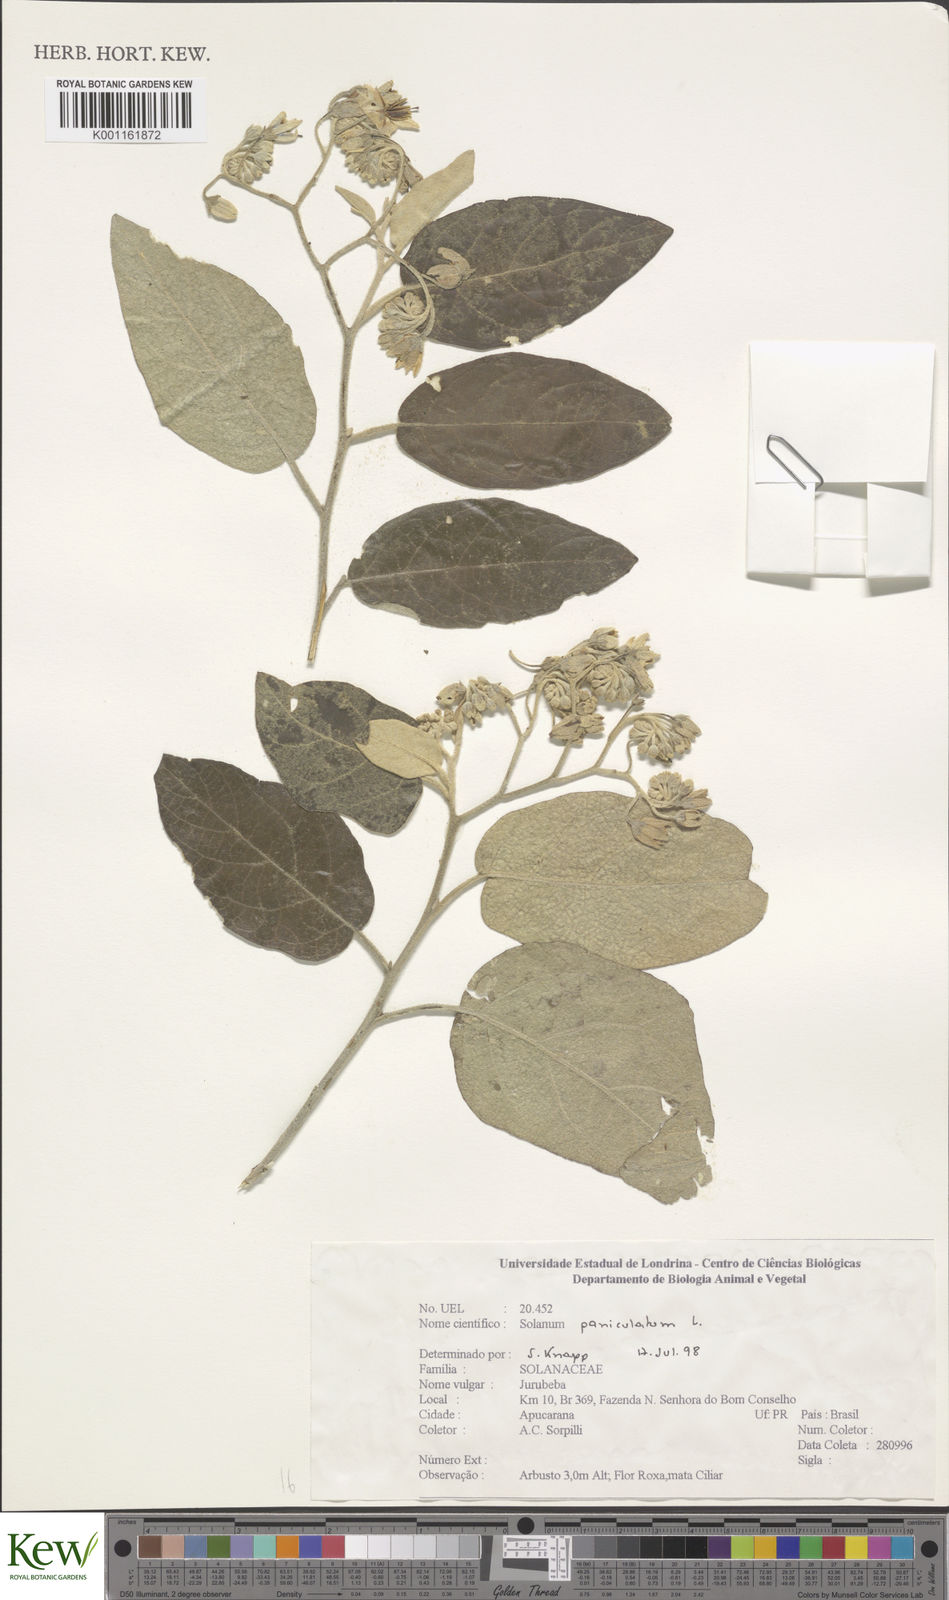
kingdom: Plantae
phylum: Tracheophyta
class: Magnoliopsida
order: Solanales
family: Solanaceae
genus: Solanum
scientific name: Solanum paniculatum
